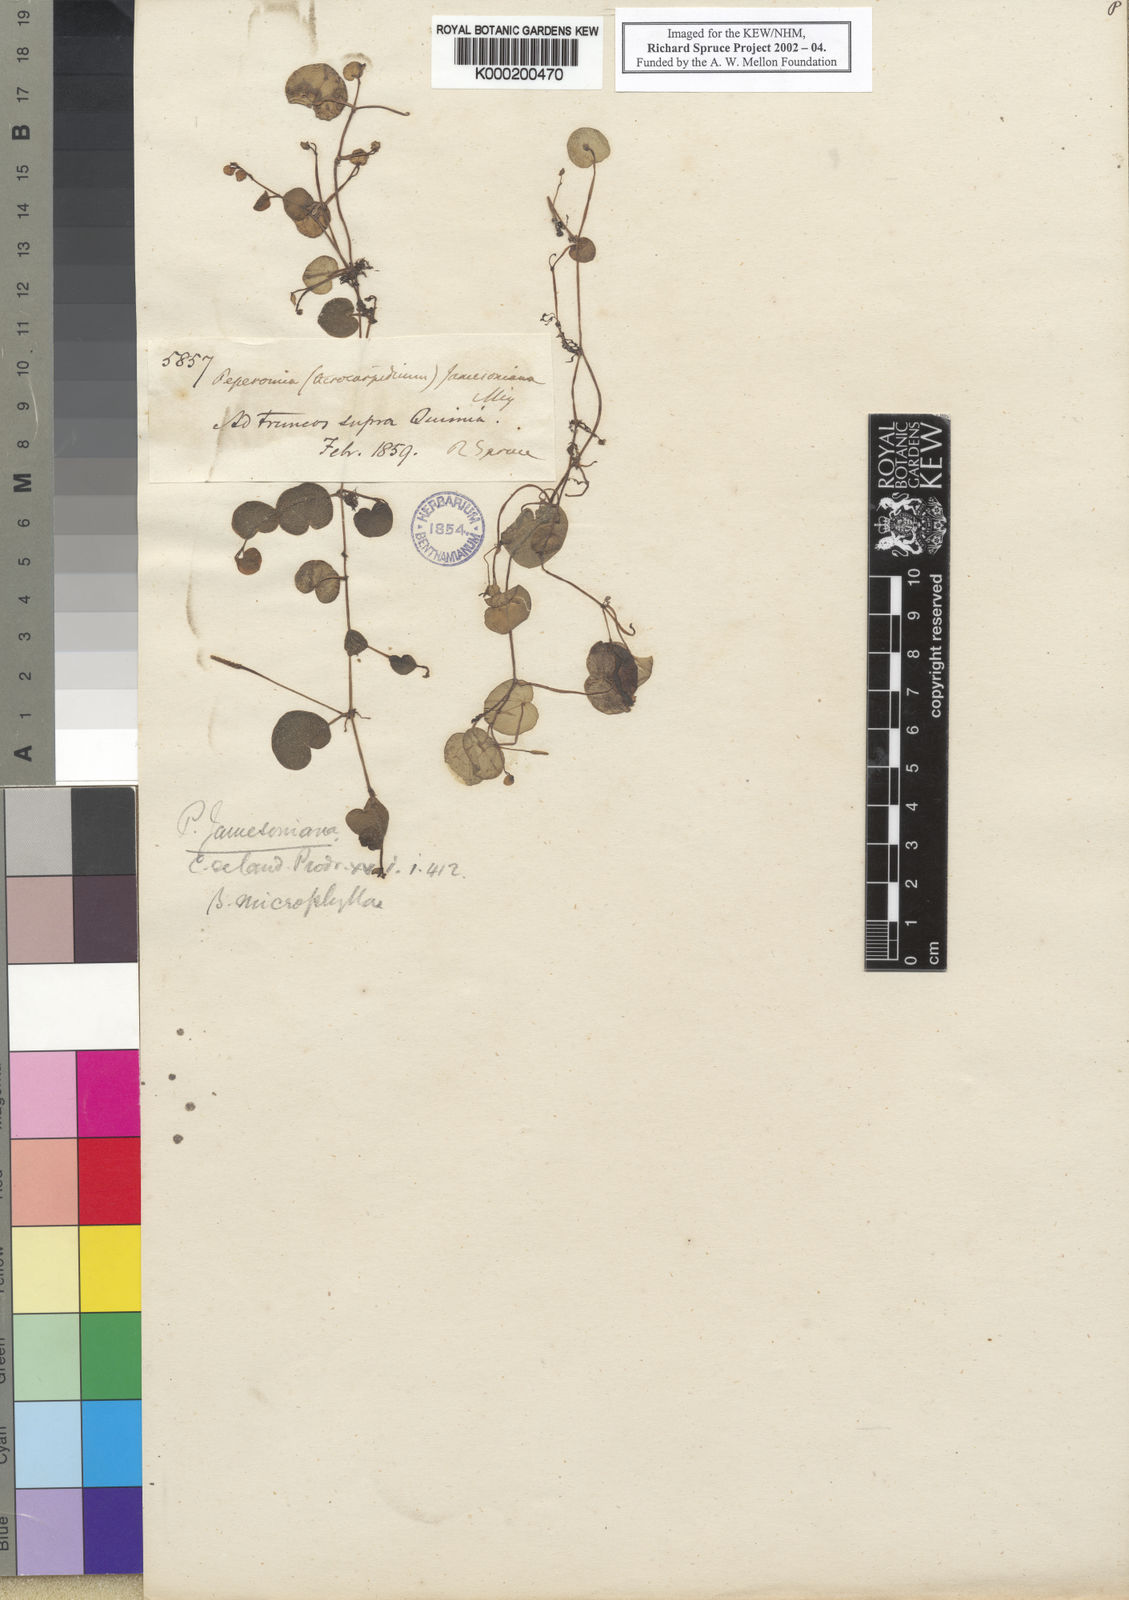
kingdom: Plantae
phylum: Tracheophyta
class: Magnoliopsida
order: Piperales
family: Piperaceae
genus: Peperomia
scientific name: Peperomia quadrifolia
